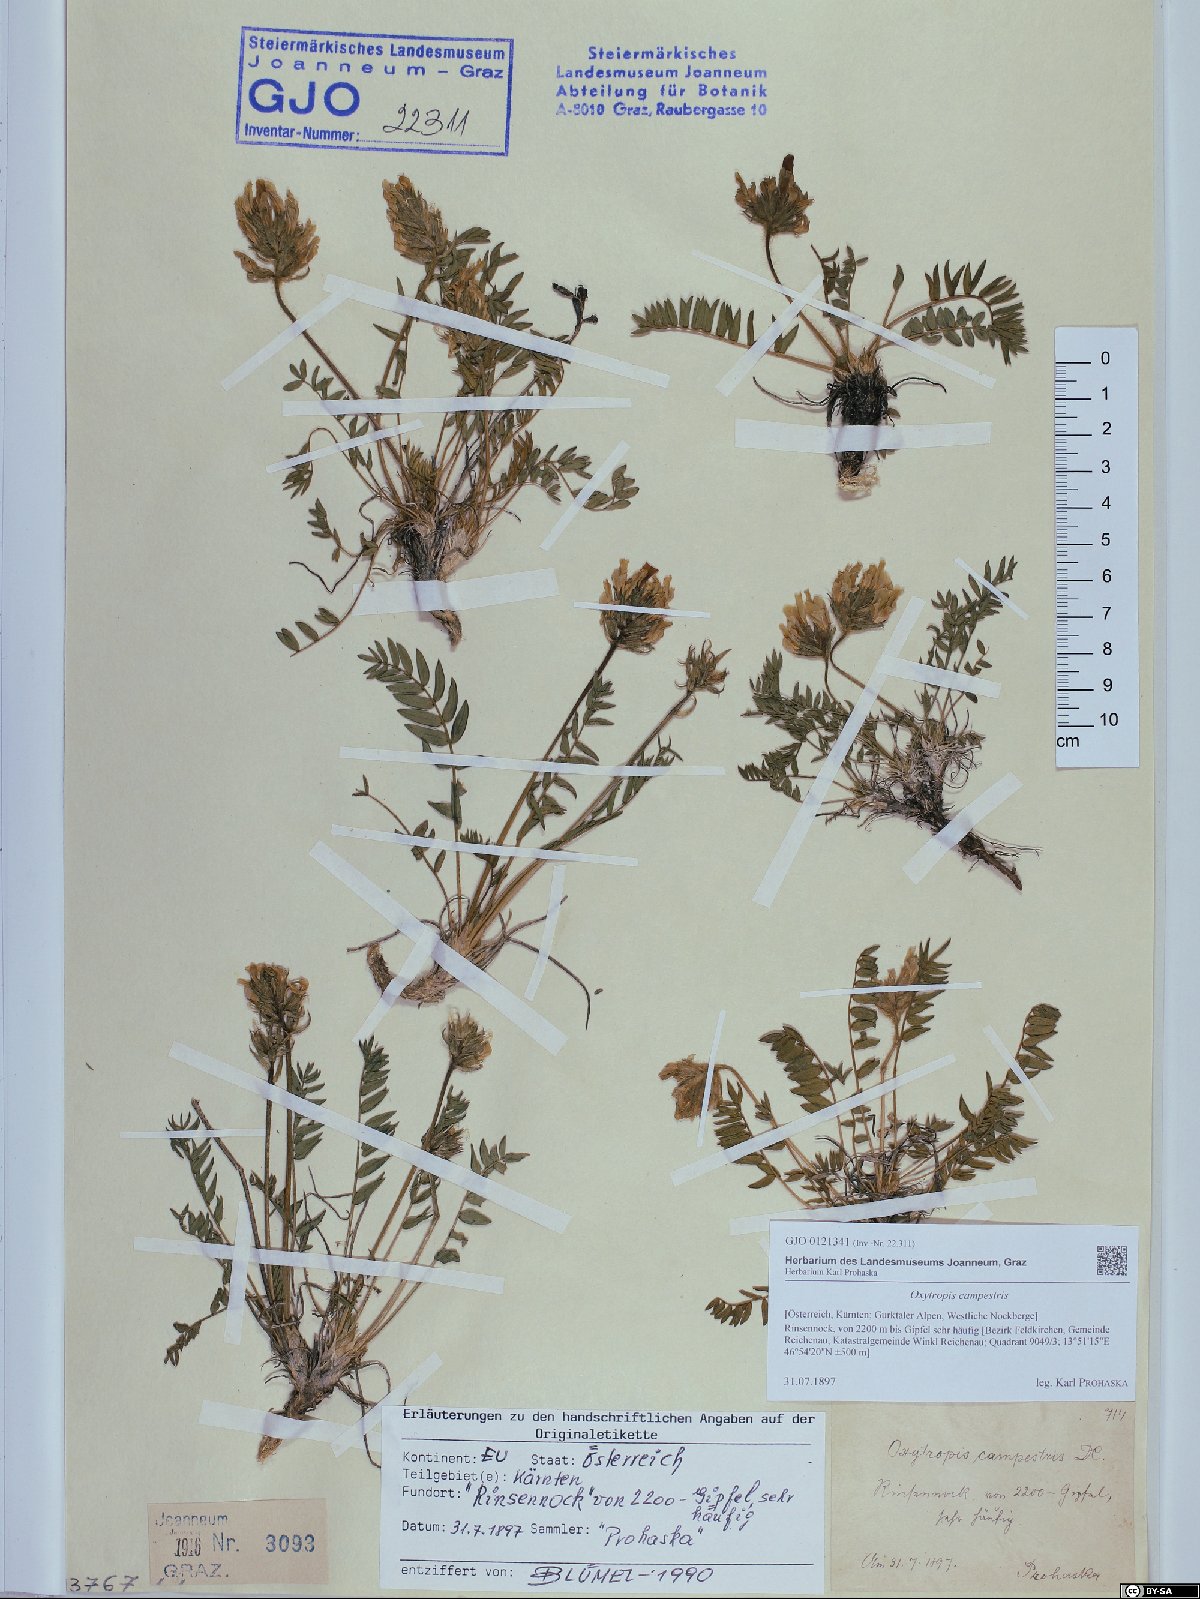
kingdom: Plantae
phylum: Tracheophyta
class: Magnoliopsida
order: Fabales
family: Fabaceae
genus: Oxytropis
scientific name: Oxytropis campestris
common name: Field locoweed
